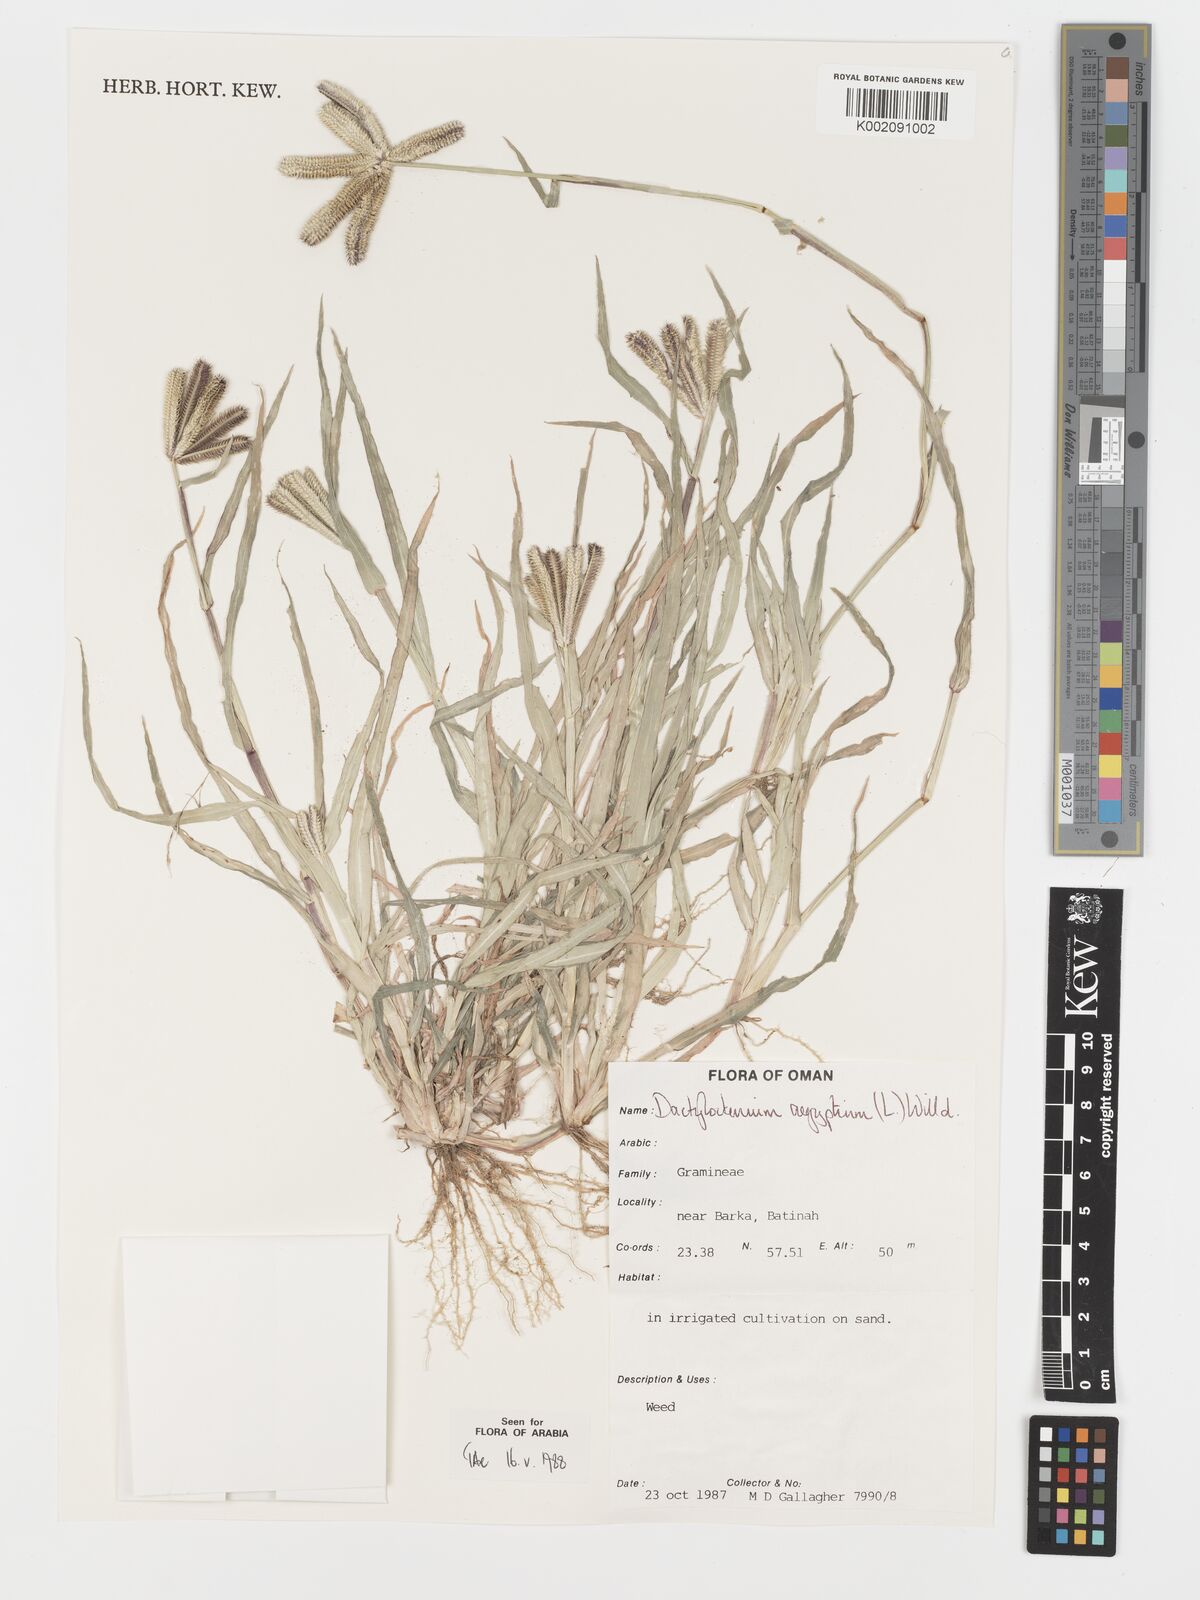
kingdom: Plantae
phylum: Tracheophyta
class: Liliopsida
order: Poales
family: Poaceae
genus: Dactyloctenium
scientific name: Dactyloctenium aegyptium
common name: Egyptian grass
